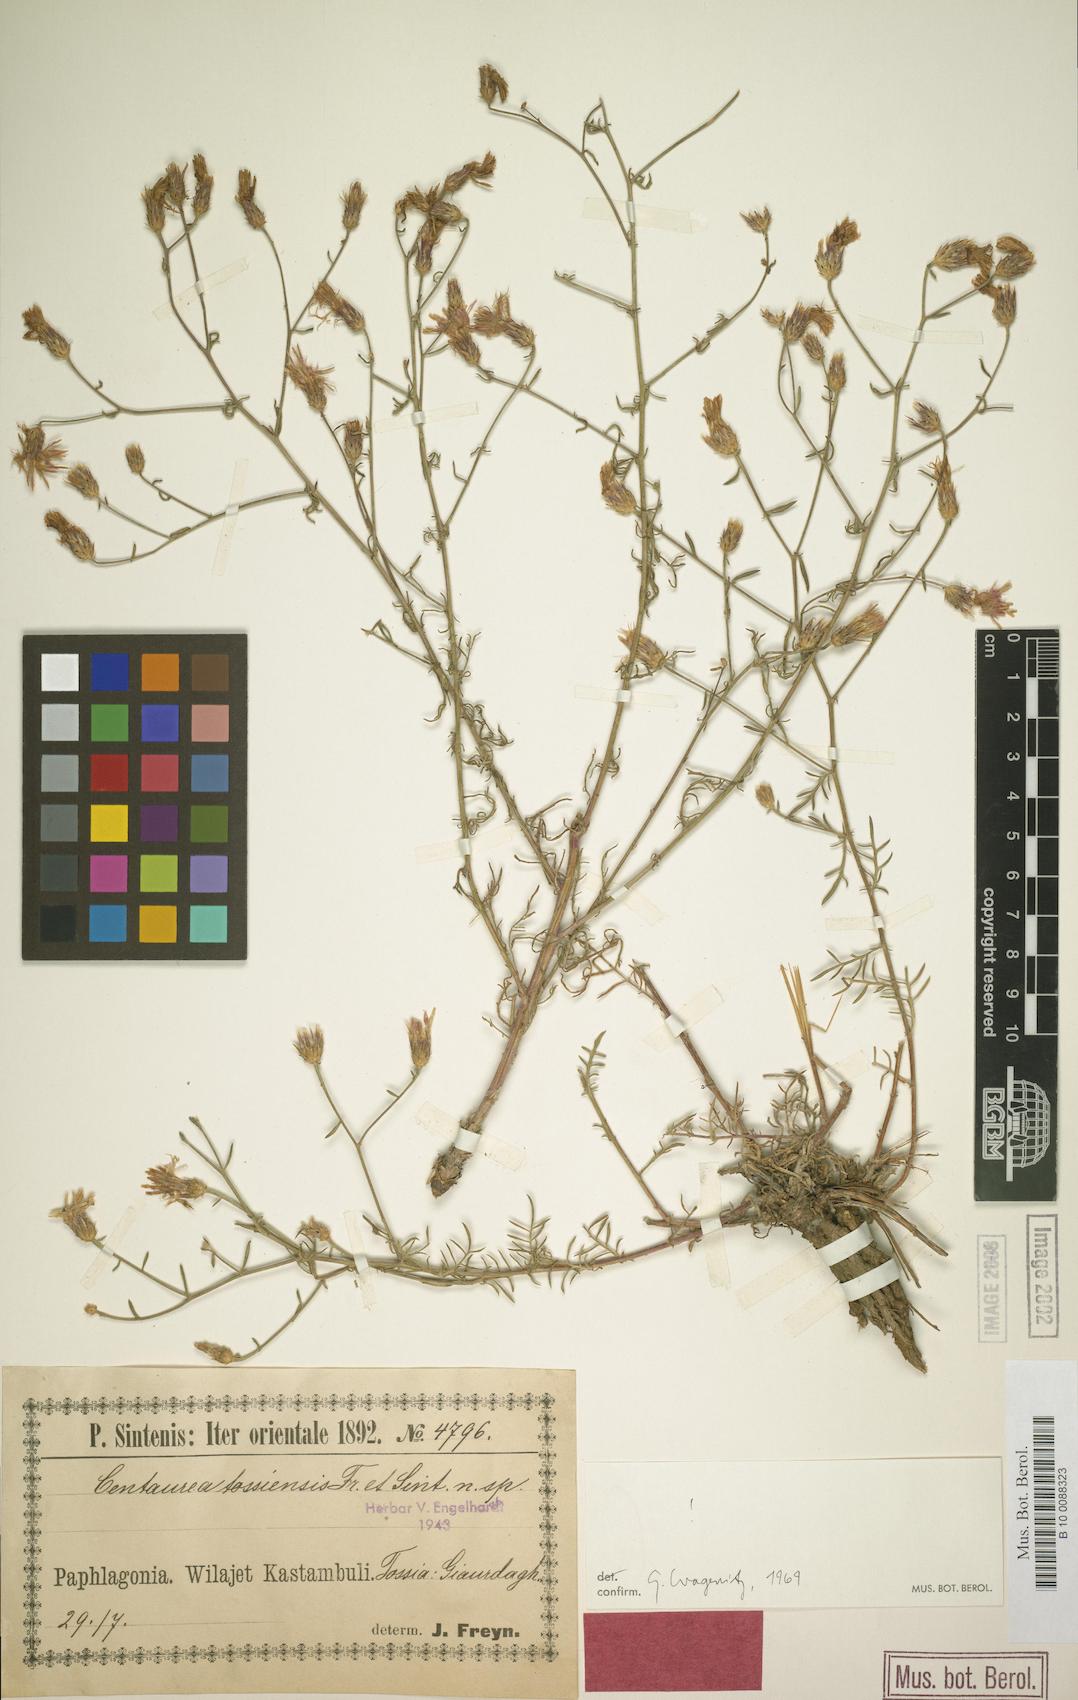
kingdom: Plantae
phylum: Tracheophyta
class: Magnoliopsida
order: Asterales
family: Asteraceae
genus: Centaurea
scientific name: Centaurea tossiensis
